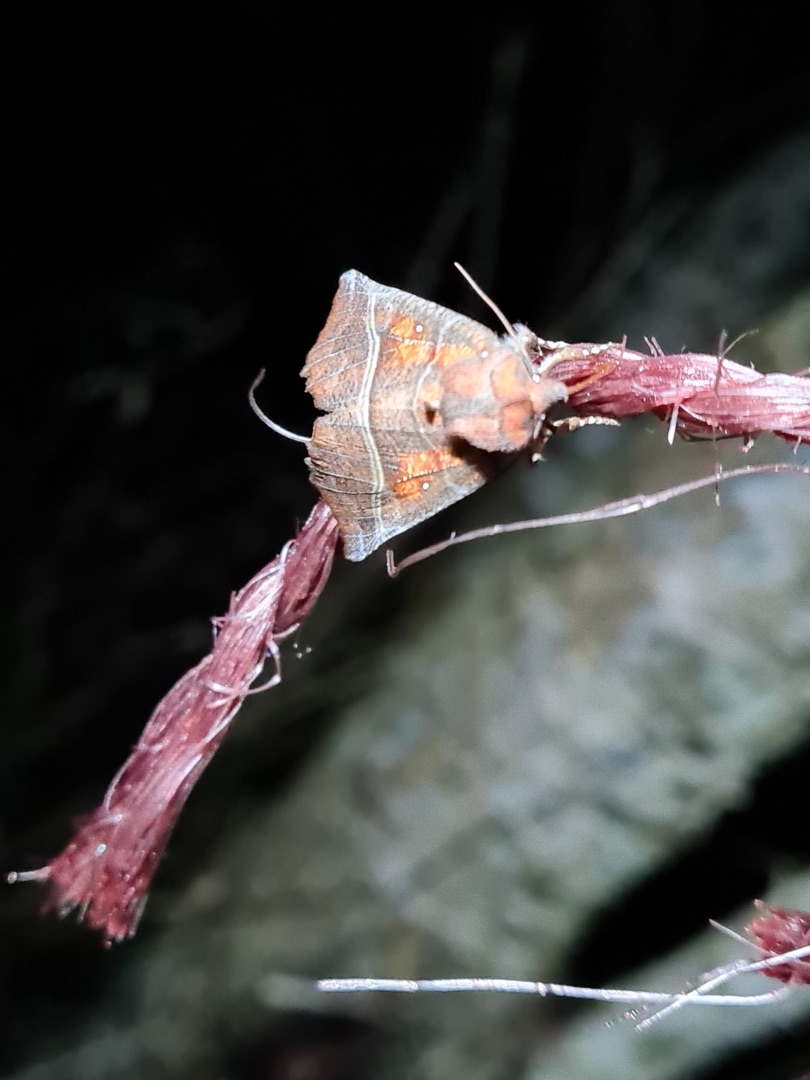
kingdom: Animalia
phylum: Arthropoda
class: Insecta
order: Lepidoptera
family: Erebidae
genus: Scoliopteryx
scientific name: Scoliopteryx libatrix
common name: Husmoderugle
